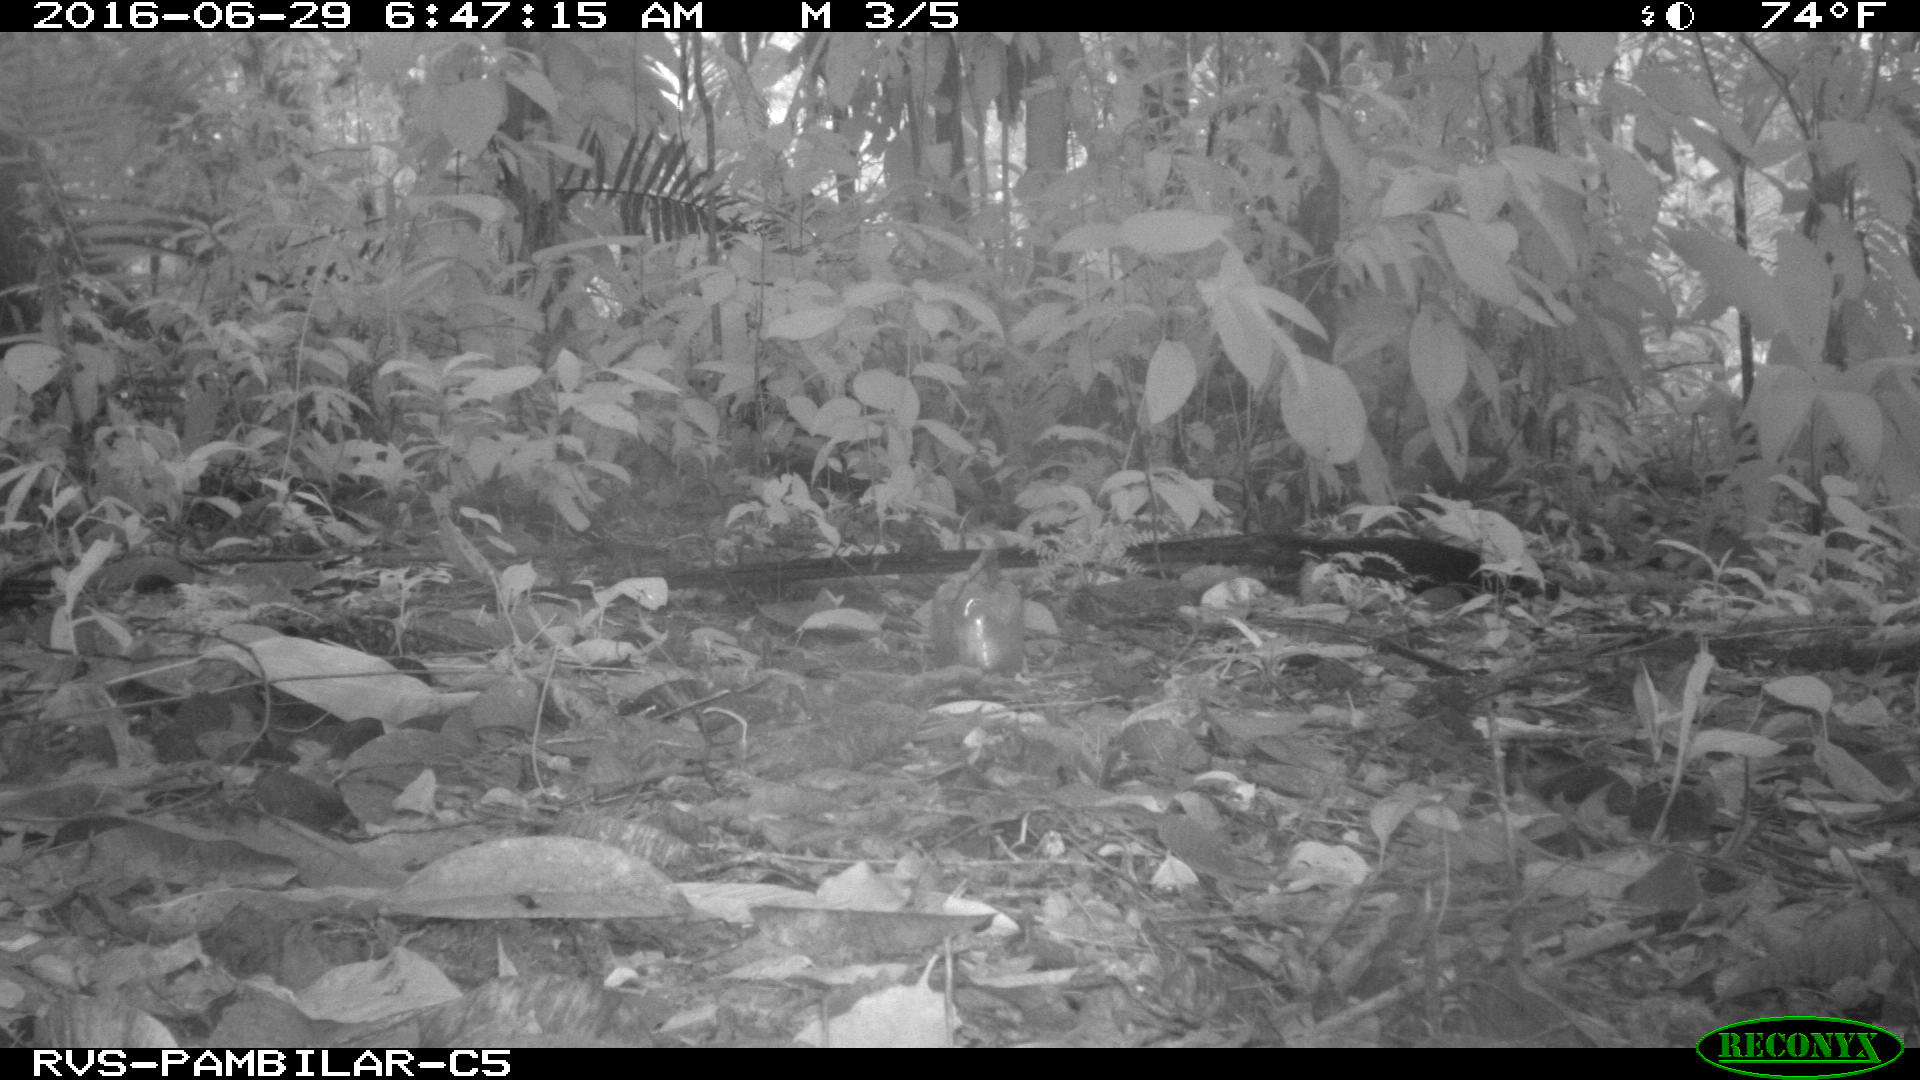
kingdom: Animalia
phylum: Chordata
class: Mammalia
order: Rodentia
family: Dasyproctidae
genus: Dasyprocta
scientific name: Dasyprocta punctata
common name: Central american agouti
